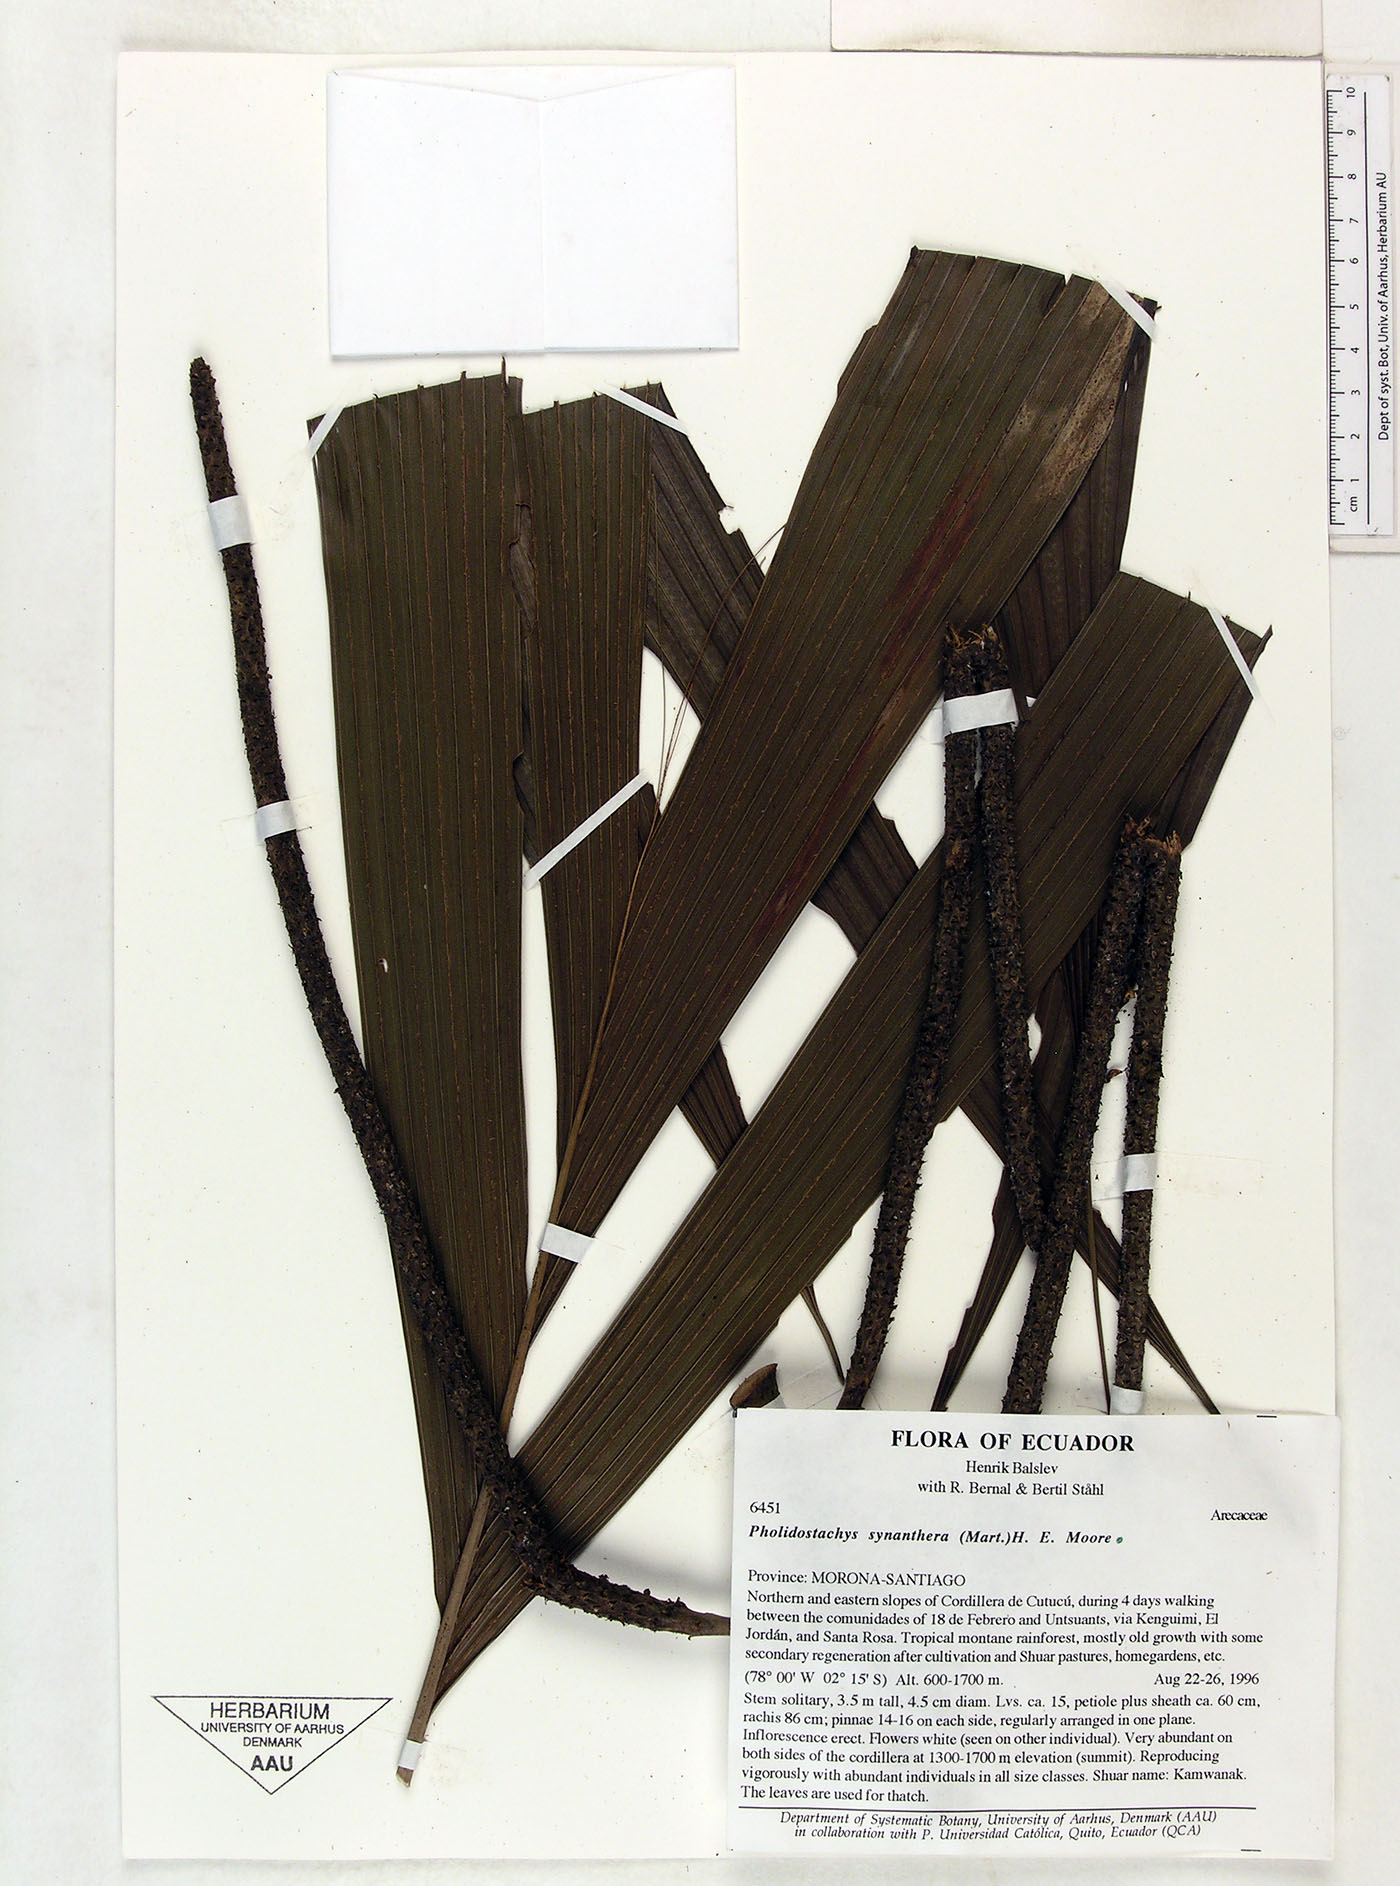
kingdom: Plantae
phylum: Tracheophyta
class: Liliopsida
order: Arecales
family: Arecaceae
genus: Pholidostachys
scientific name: Pholidostachys synanthera
